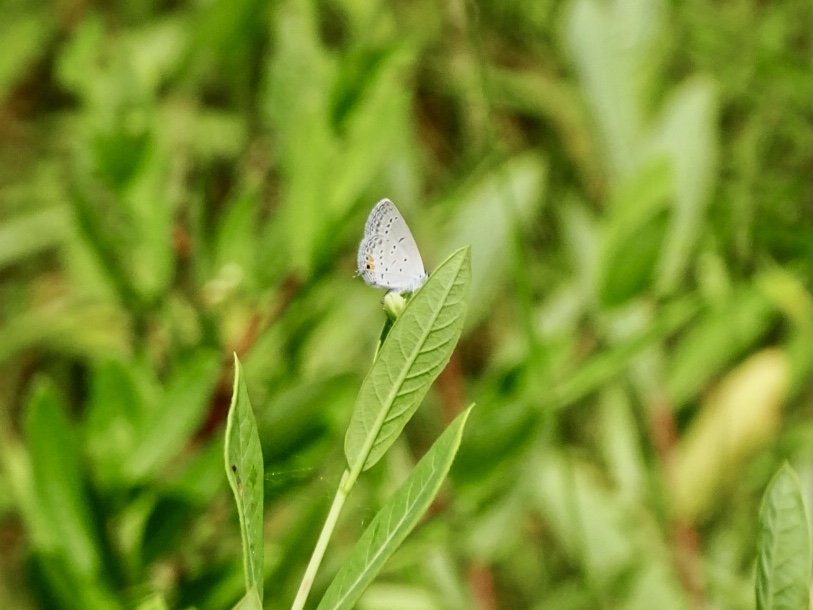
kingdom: Animalia
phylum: Arthropoda
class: Insecta
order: Lepidoptera
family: Lycaenidae
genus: Elkalyce
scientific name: Elkalyce comyntas
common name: Eastern Tailed-Blue
